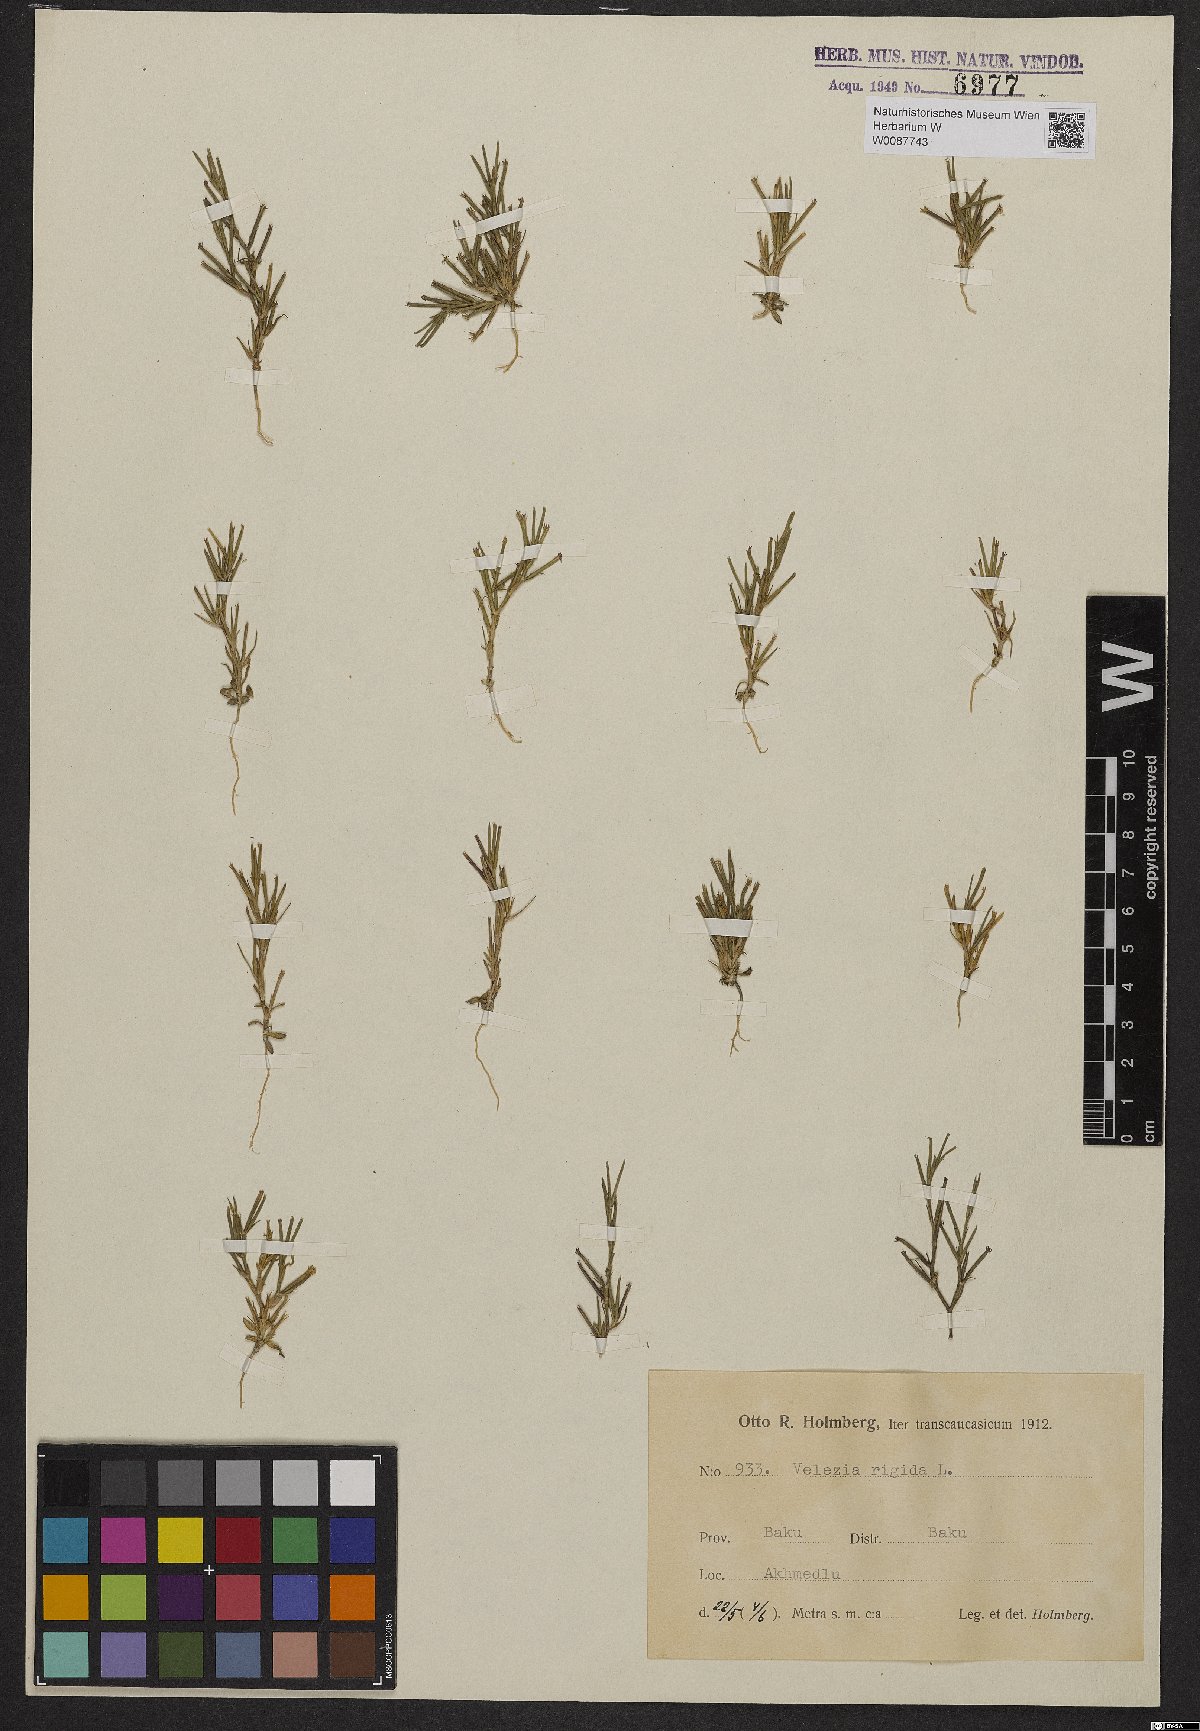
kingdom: Plantae
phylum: Tracheophyta
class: Magnoliopsida
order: Caryophyllales
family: Caryophyllaceae
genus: Dianthus
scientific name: Dianthus nudiflorus
